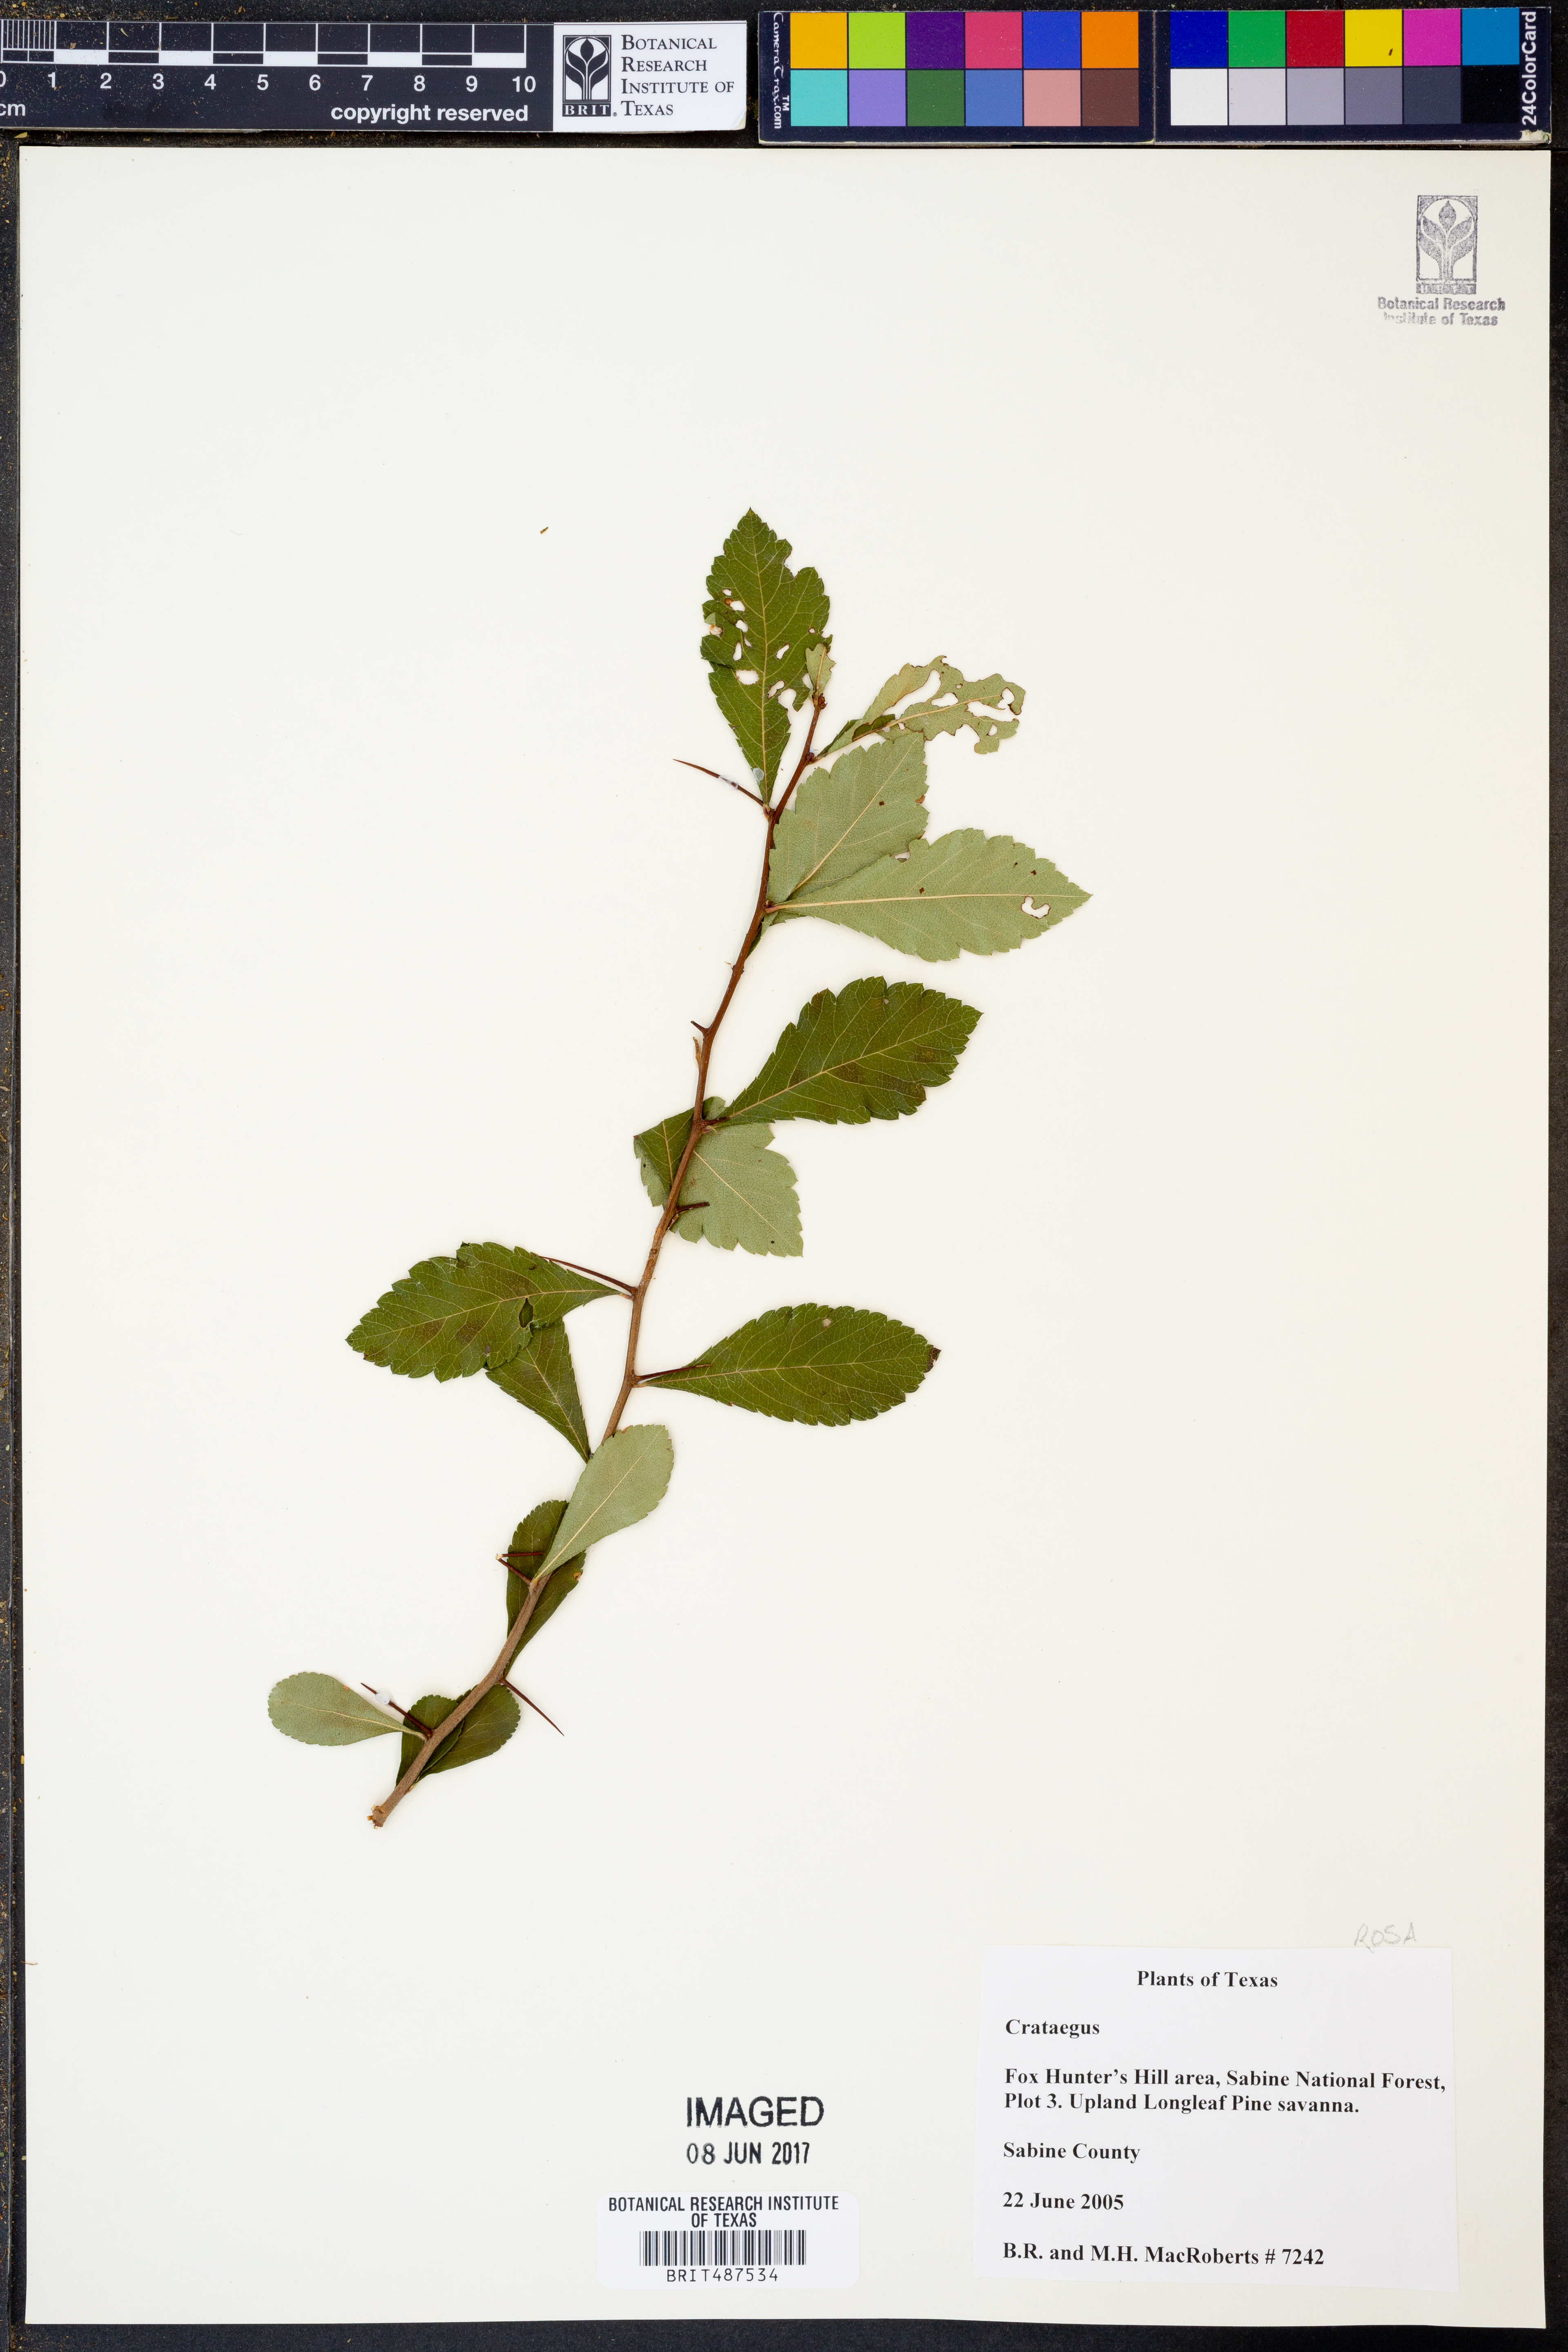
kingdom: Plantae
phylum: Tracheophyta
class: Magnoliopsida
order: Rosales
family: Rosaceae
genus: Crataegus
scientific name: Crataegus
